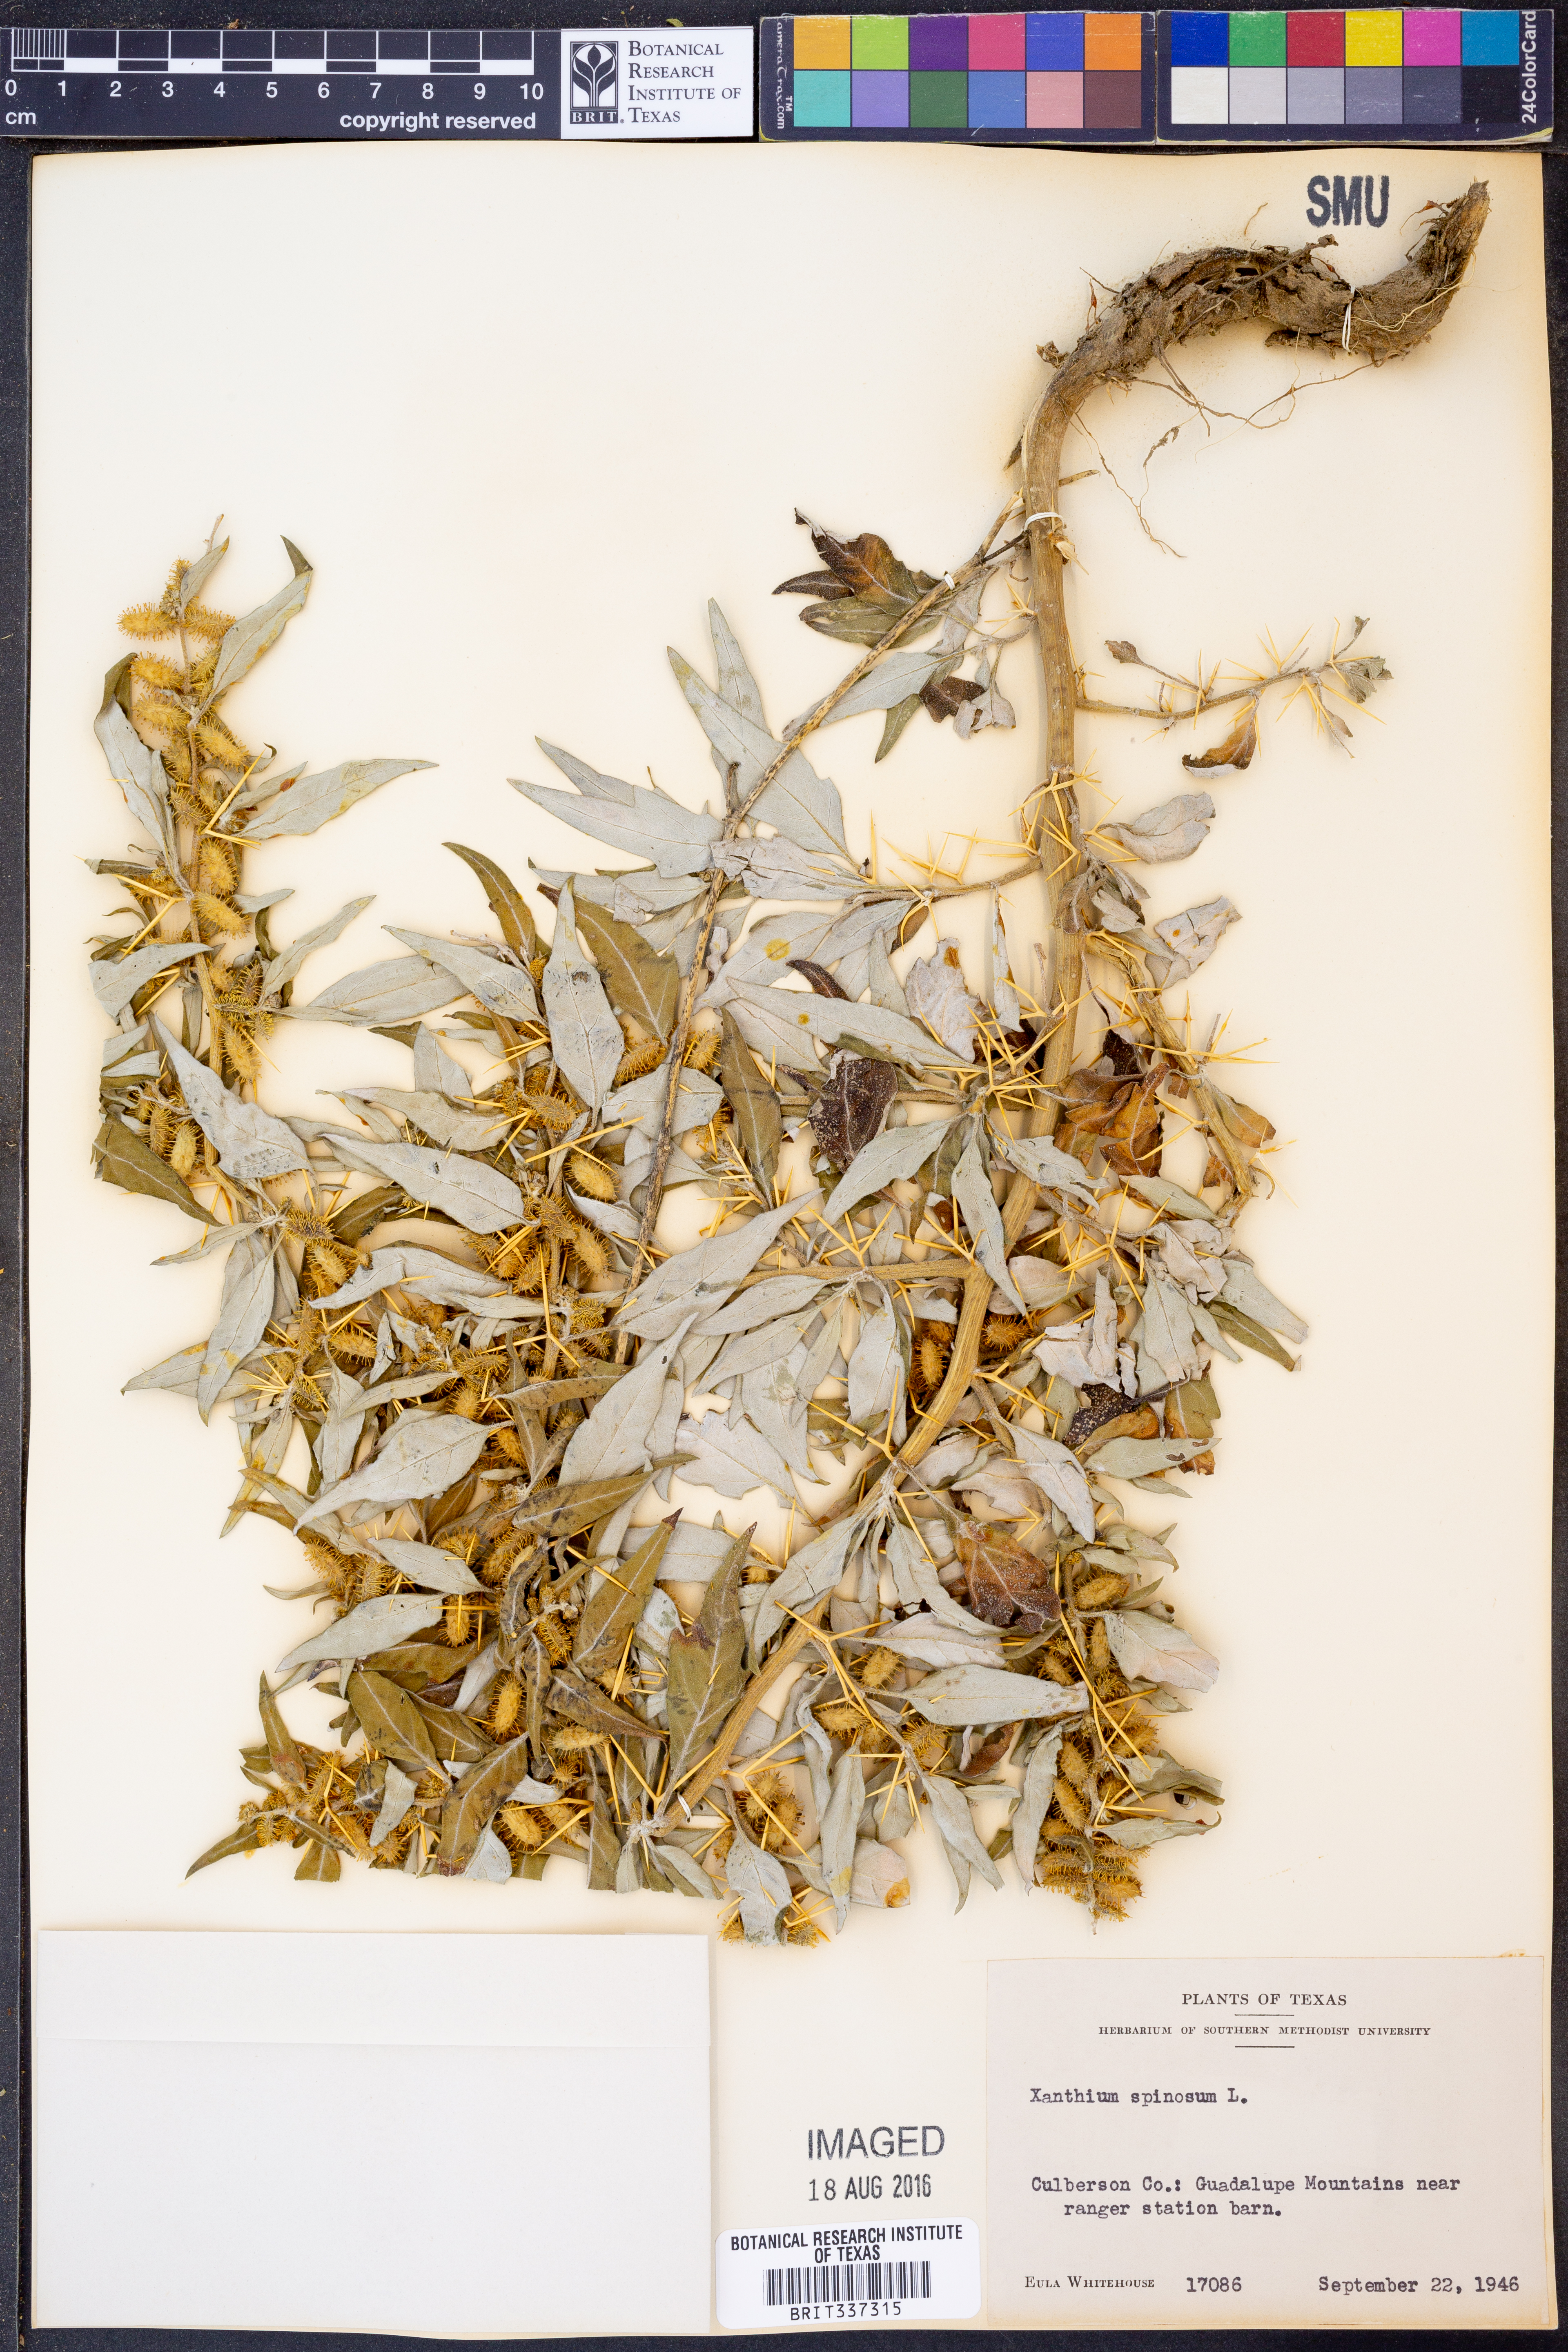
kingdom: Plantae
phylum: Tracheophyta
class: Magnoliopsida
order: Asterales
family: Asteraceae
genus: Xanthium
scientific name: Xanthium spinosum
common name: Spiny cocklebur
